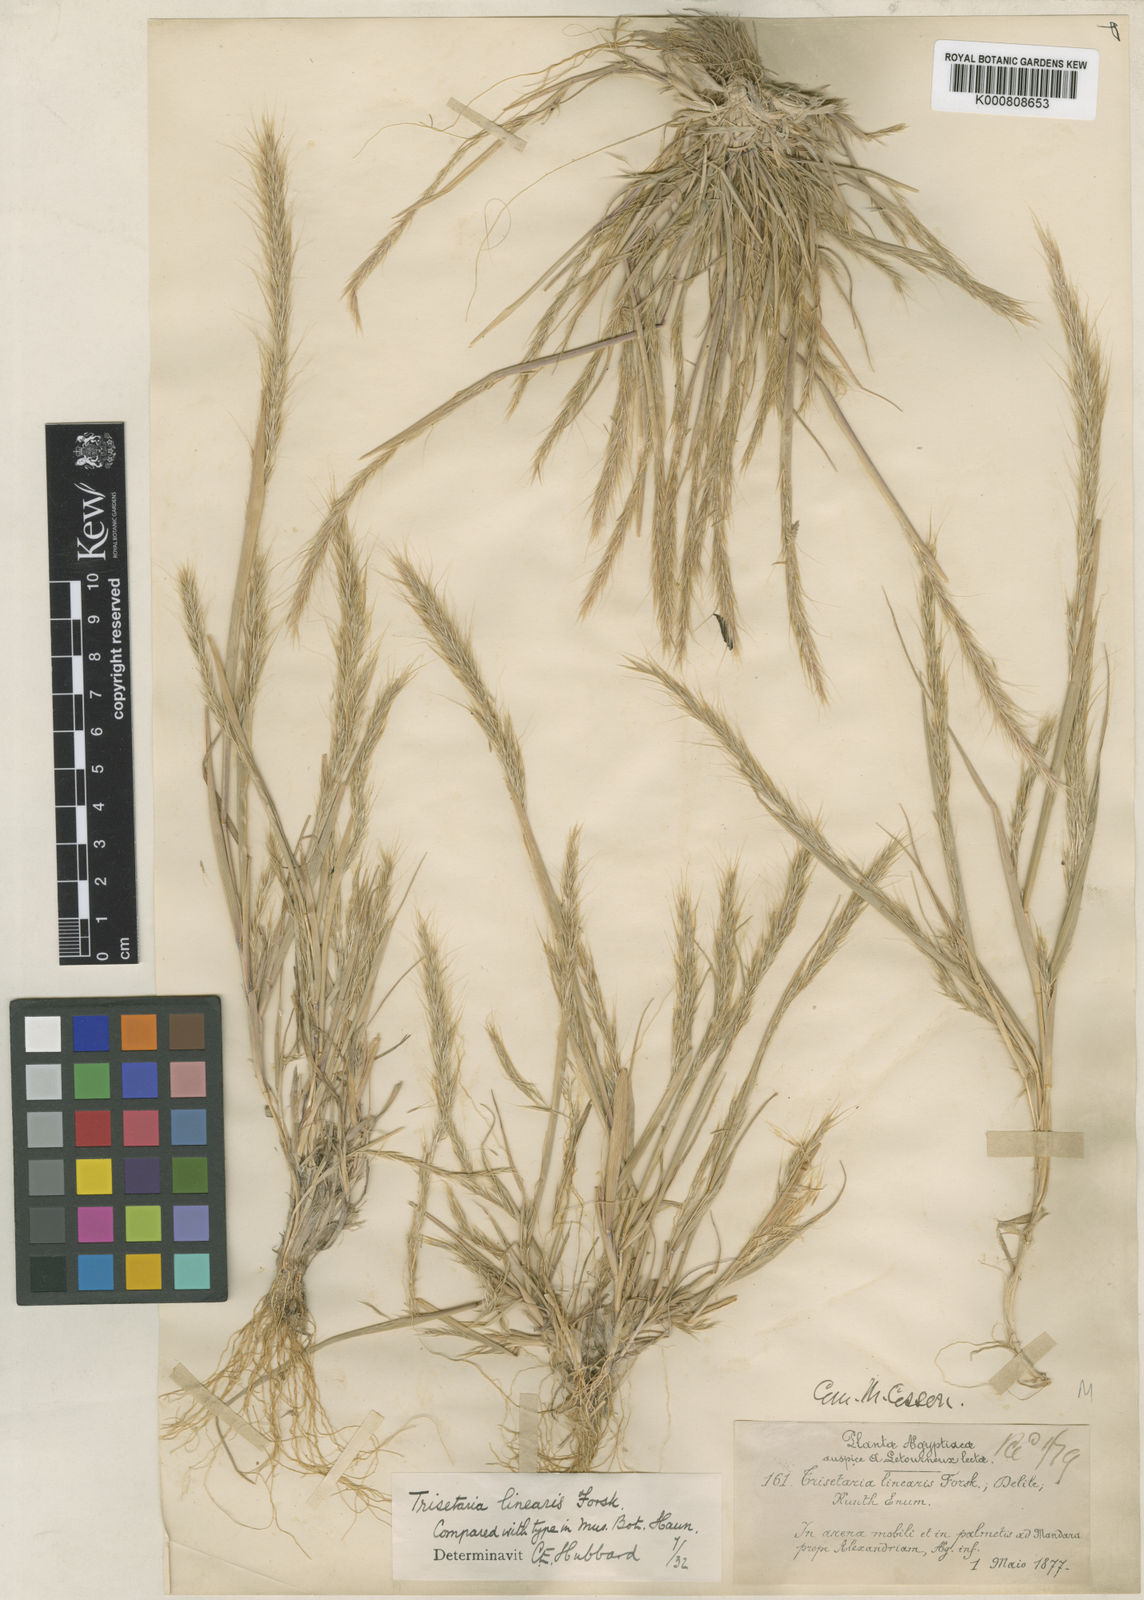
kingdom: Plantae
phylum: Tracheophyta
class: Liliopsida
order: Poales
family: Poaceae
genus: Trisetaria
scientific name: Trisetaria linearis
